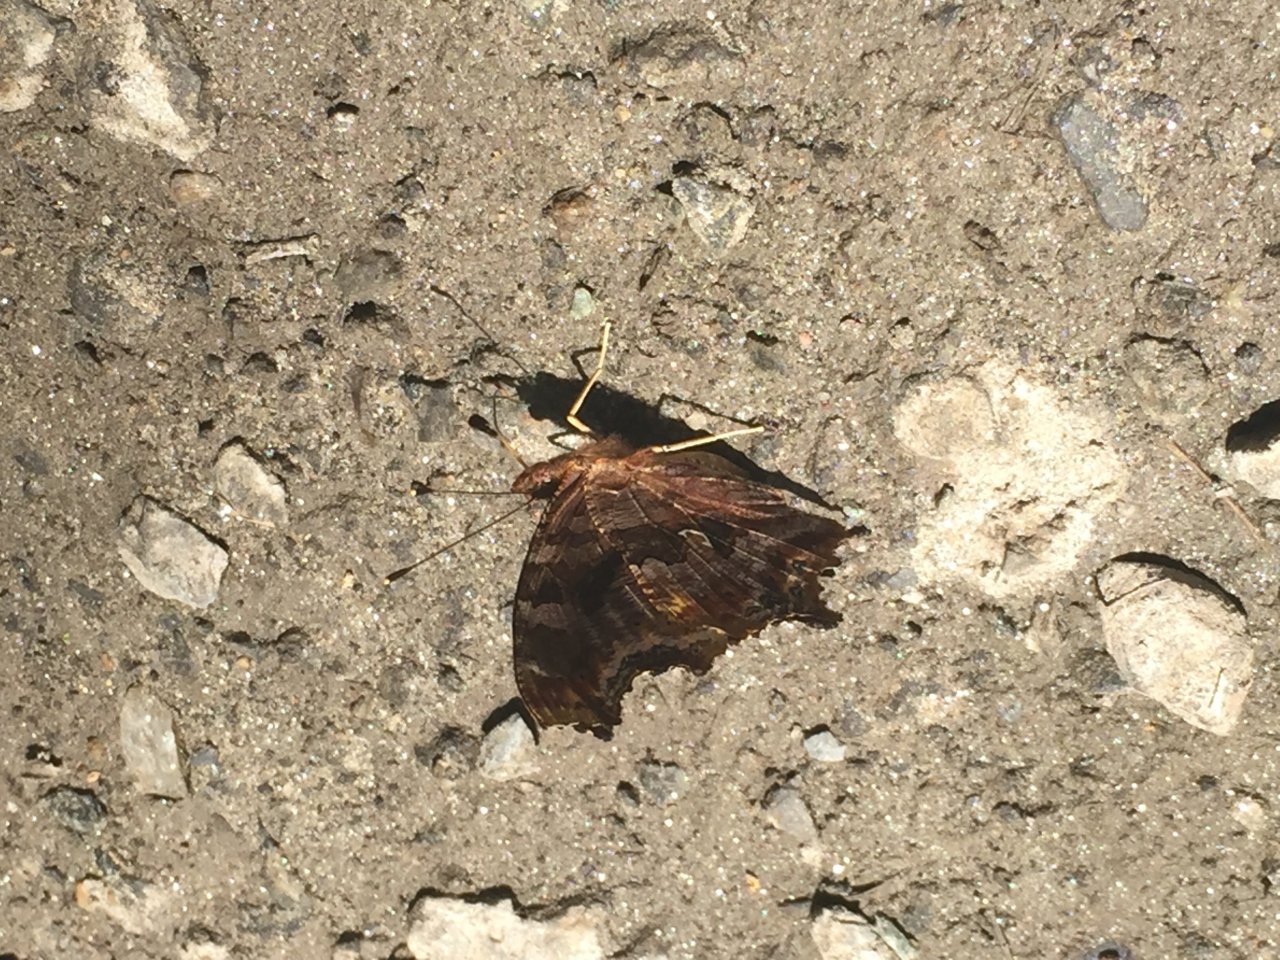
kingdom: Animalia
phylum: Arthropoda
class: Insecta
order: Lepidoptera
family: Nymphalidae
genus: Polygonia
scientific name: Polygonia comma
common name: Eastern Comma
